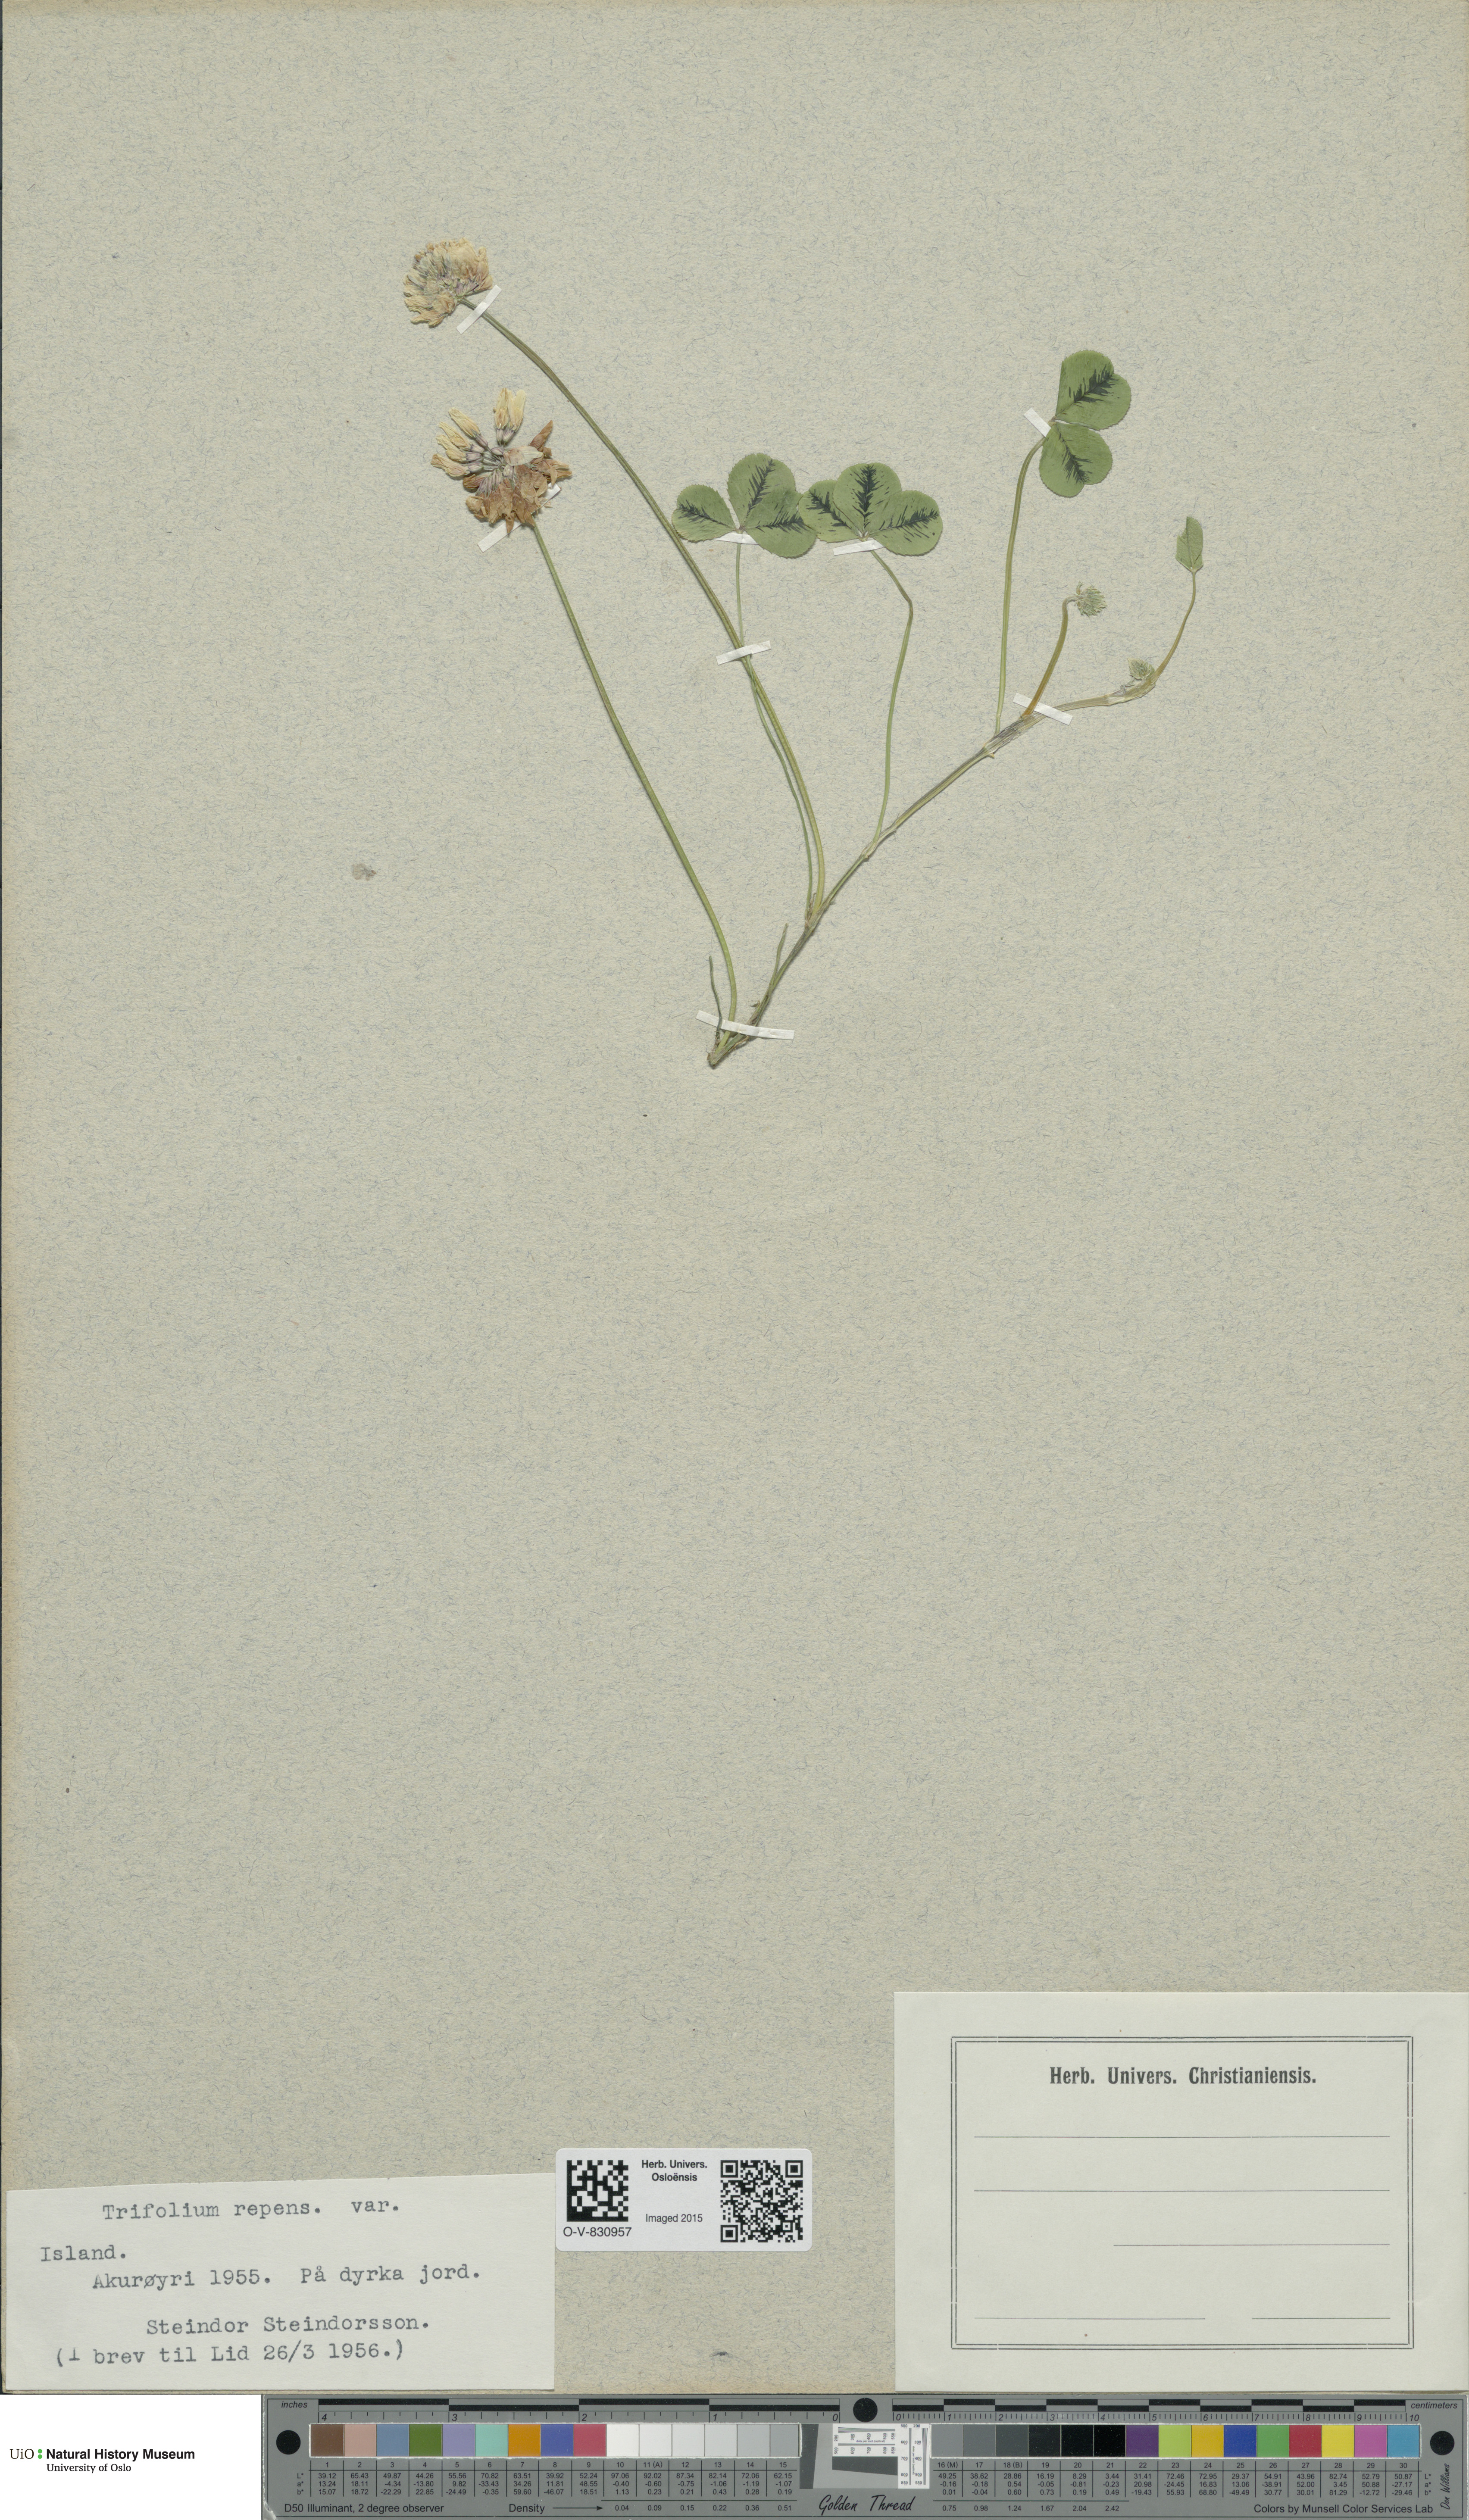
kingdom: Plantae
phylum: Tracheophyta
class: Magnoliopsida
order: Fabales
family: Fabaceae
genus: Trifolium
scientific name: Trifolium repens
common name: White clover
